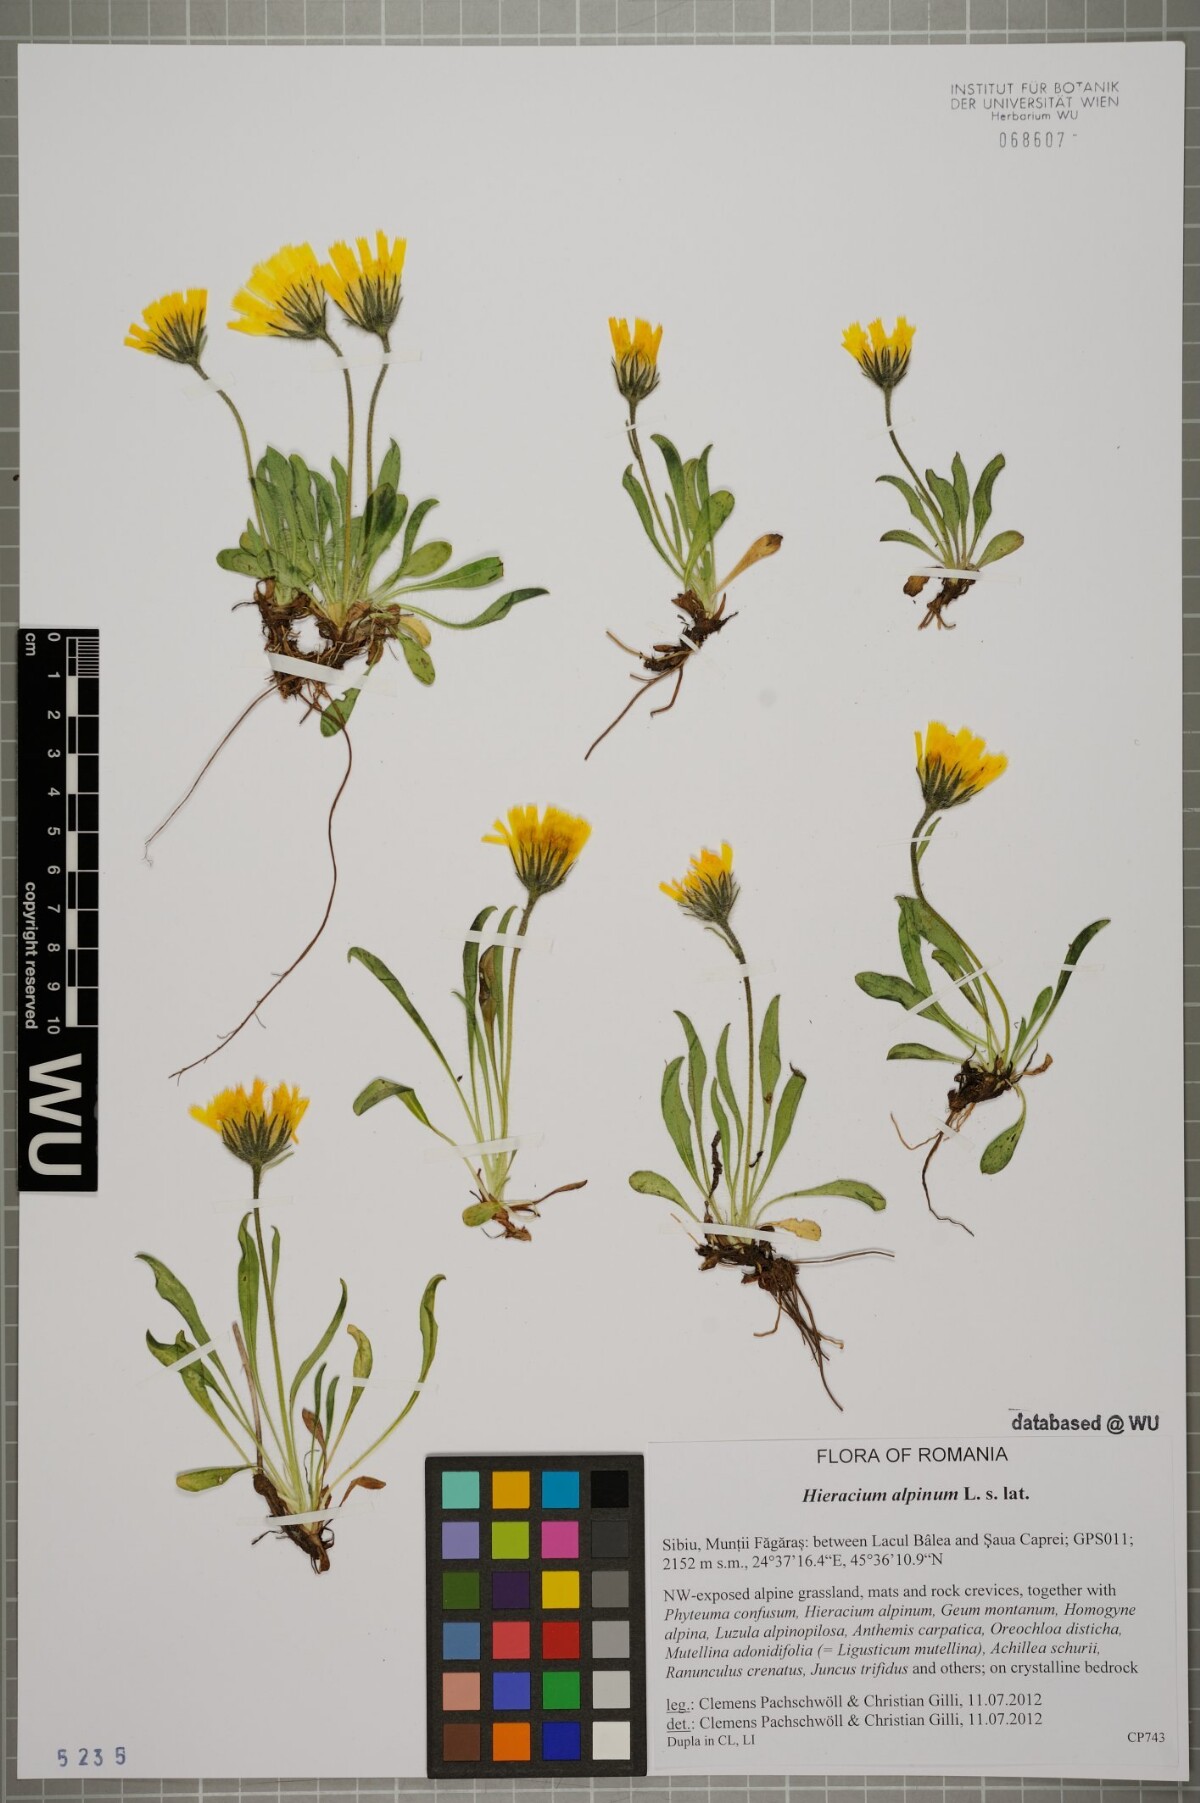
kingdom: Plantae
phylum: Tracheophyta
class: Magnoliopsida
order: Asterales
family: Asteraceae
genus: Hieracium
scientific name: Hieracium alpinum
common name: Alpine hawkweed
